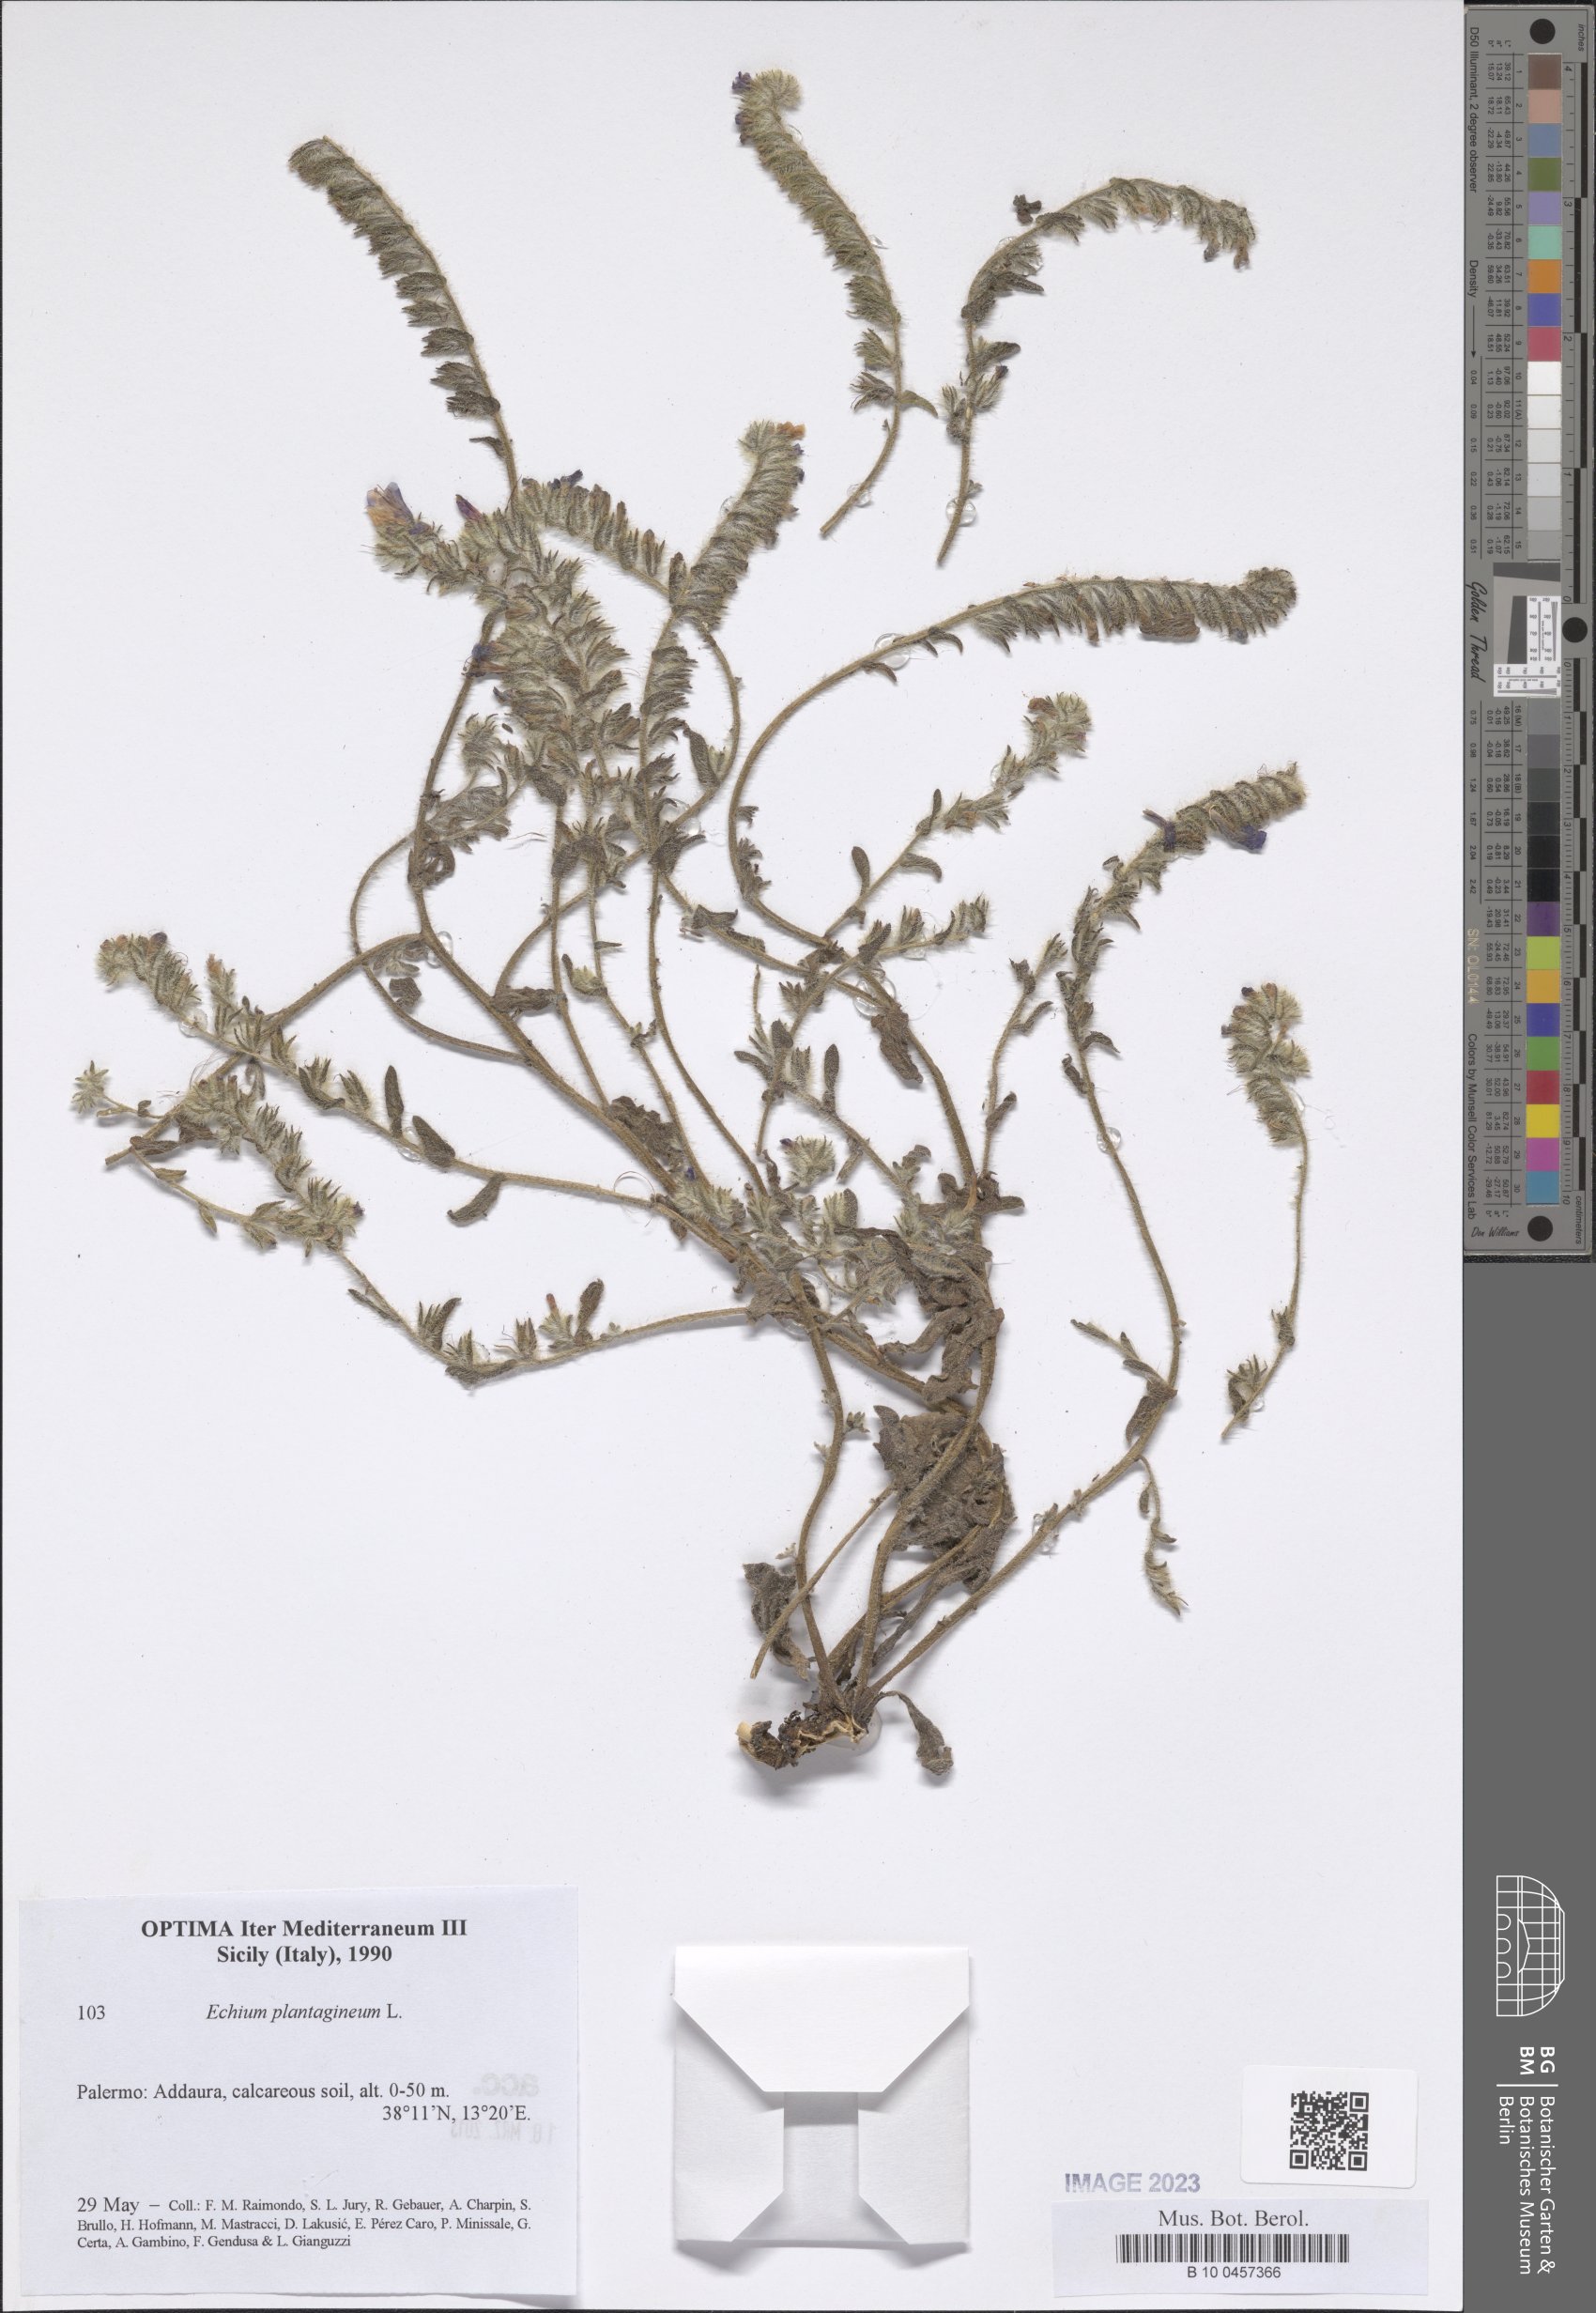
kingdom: Plantae
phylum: Tracheophyta
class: Magnoliopsida
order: Boraginales
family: Boraginaceae
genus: Echium
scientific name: Echium plantagineum
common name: Purple viper's-bugloss
